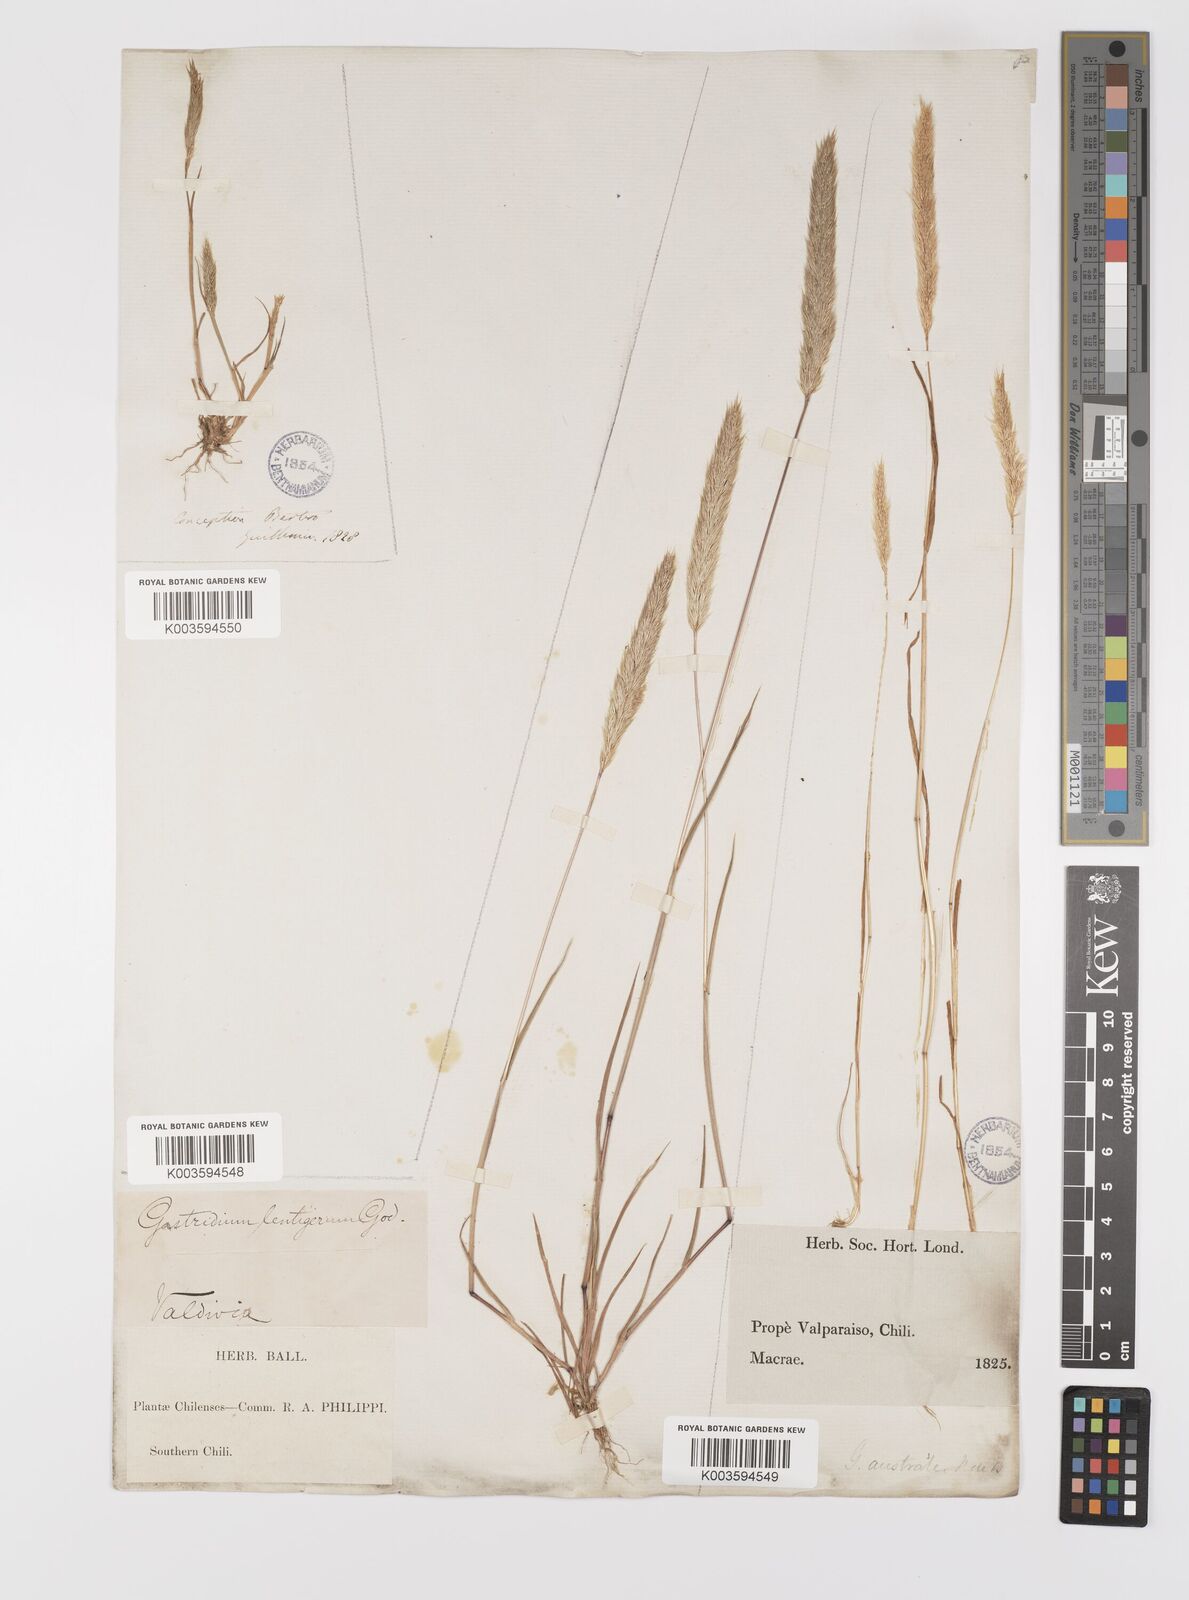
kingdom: Plantae
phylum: Tracheophyta
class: Liliopsida
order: Poales
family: Poaceae
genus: Gastridium
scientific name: Gastridium phleoides
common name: Nit grass
